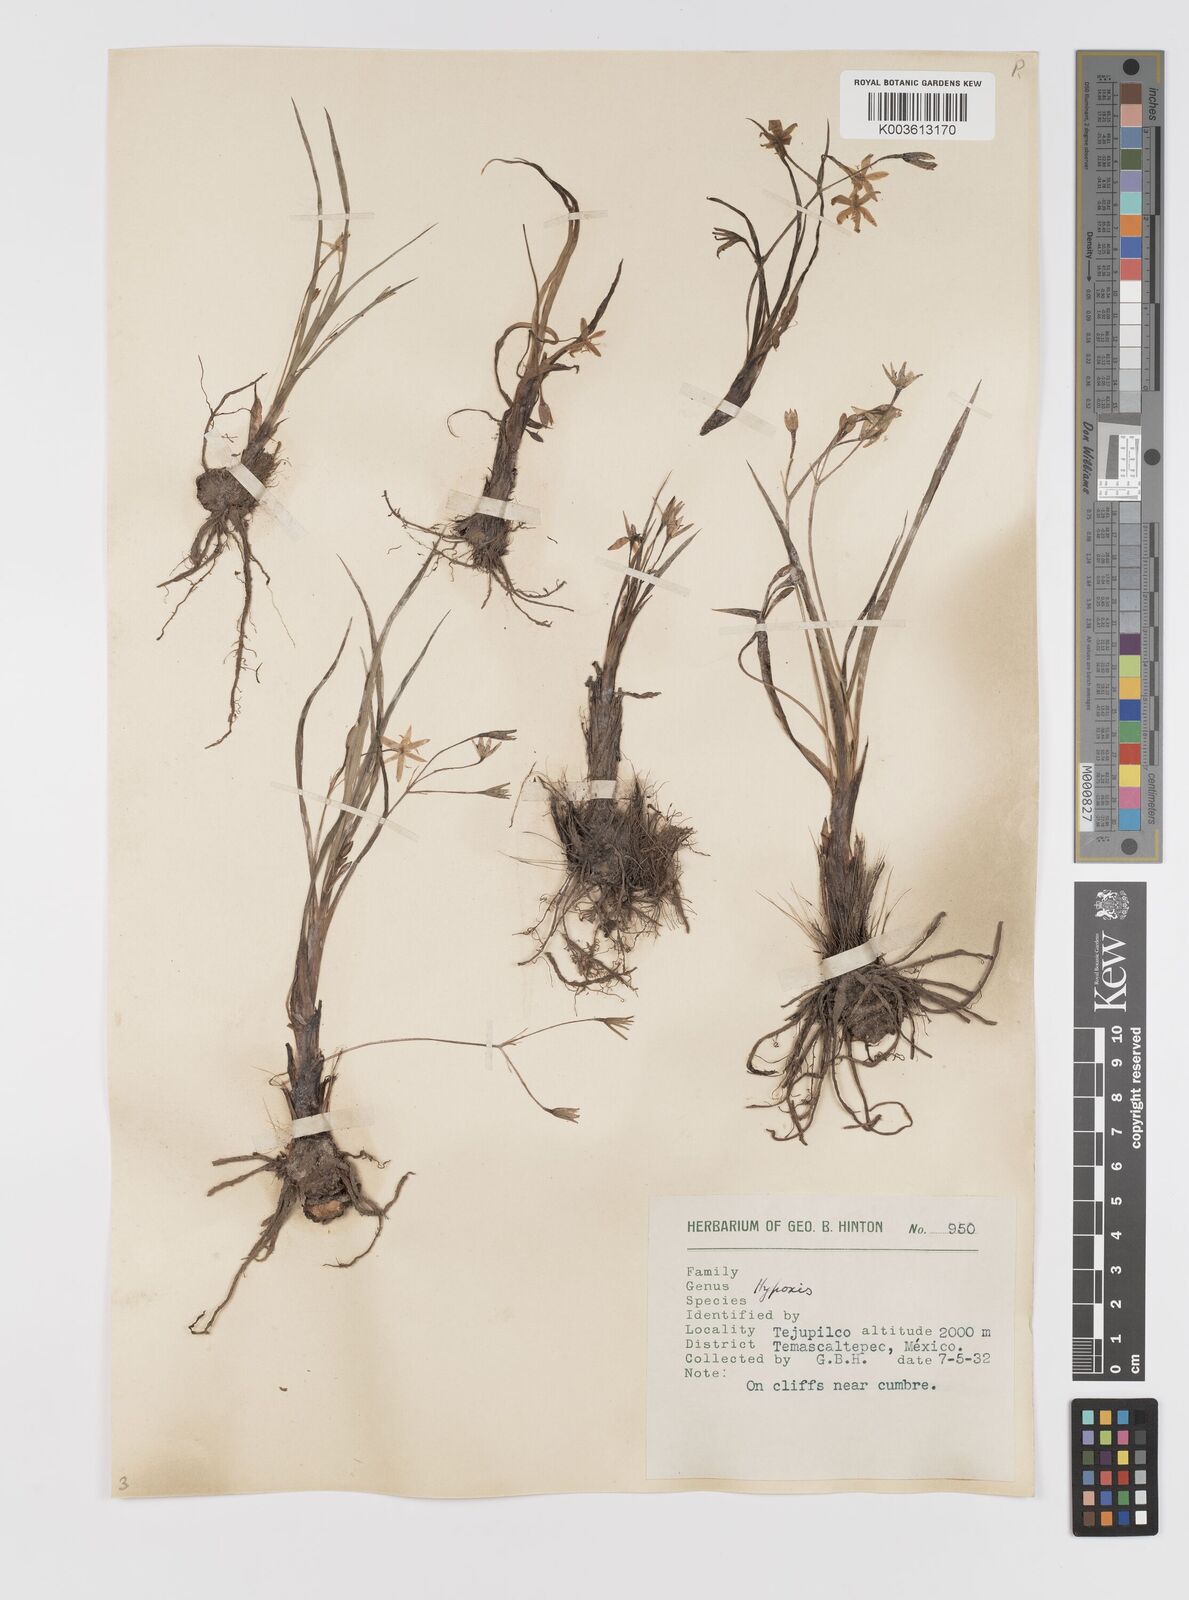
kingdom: Plantae
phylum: Tracheophyta
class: Liliopsida
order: Asparagales
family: Hypoxidaceae
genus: Hypoxis
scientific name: Hypoxis potosina
